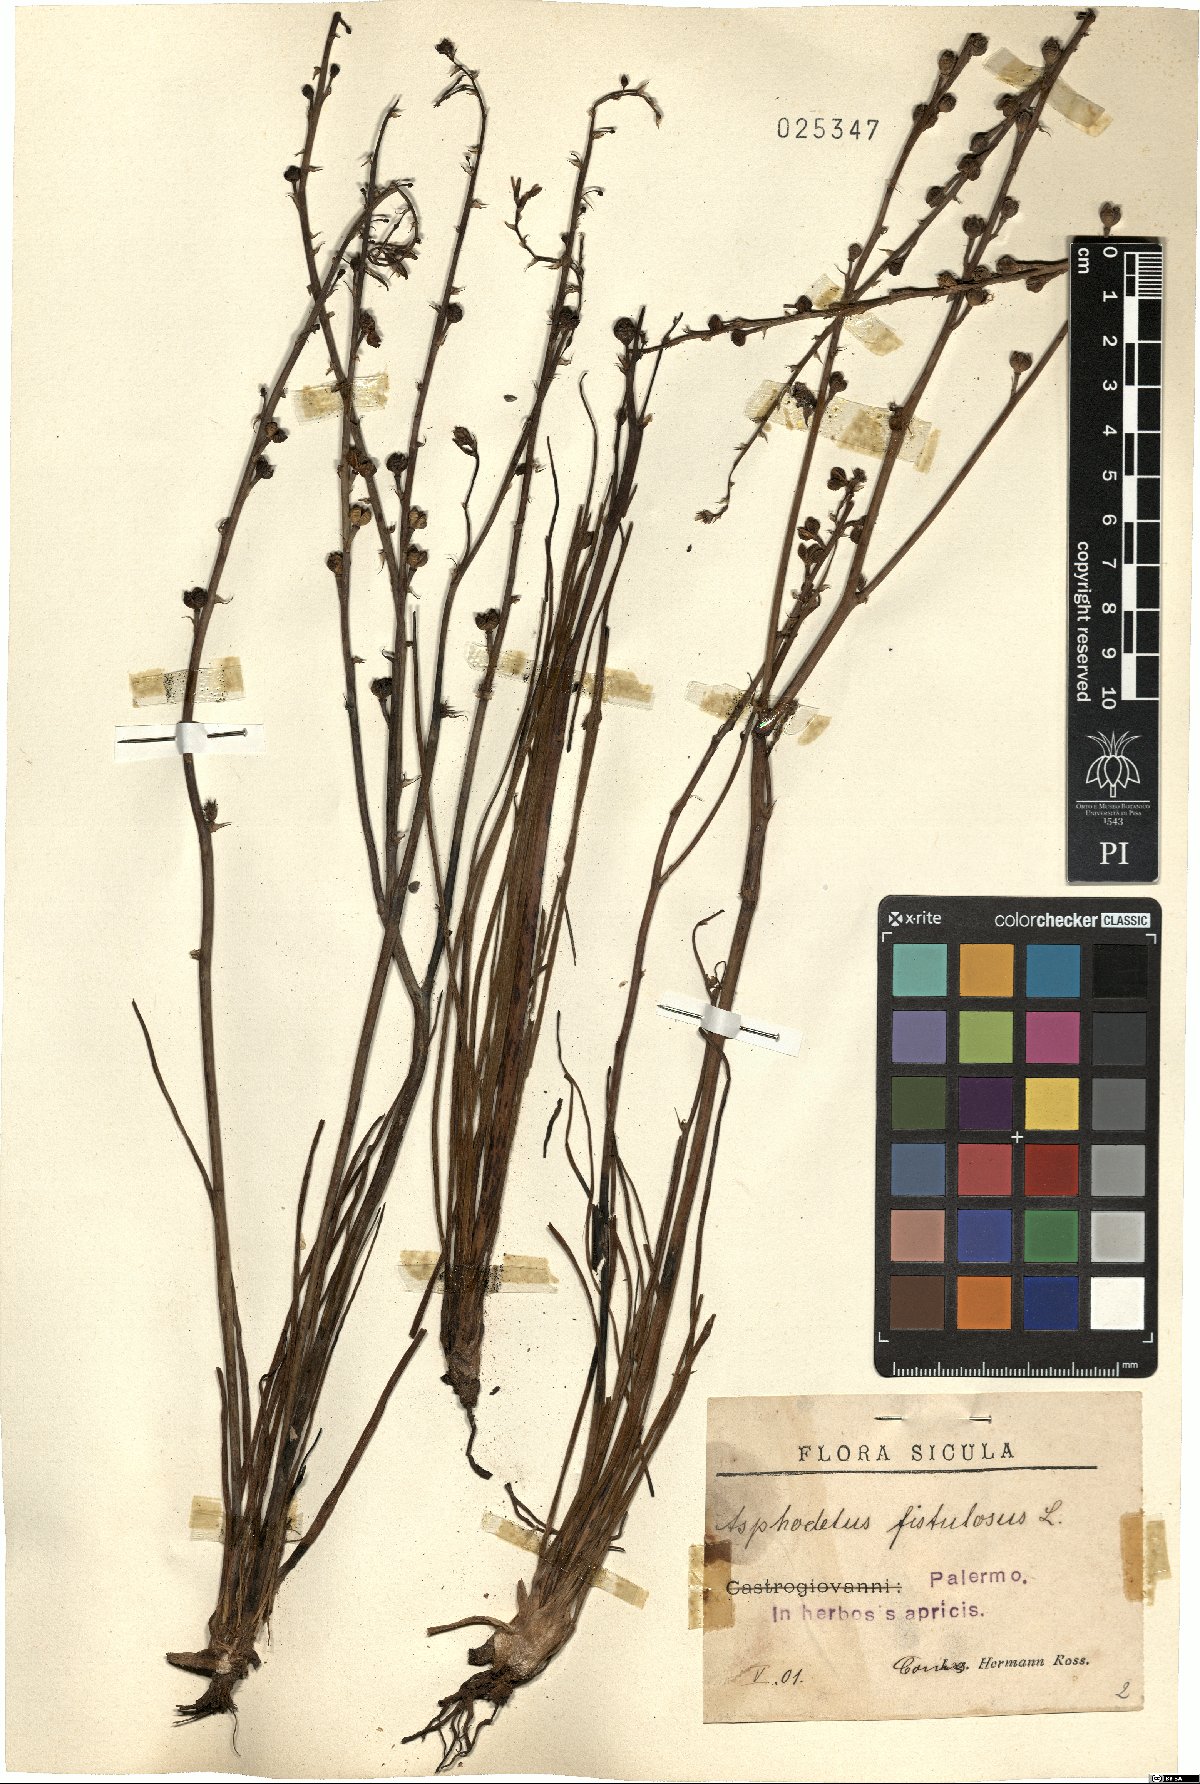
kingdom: Plantae
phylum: Tracheophyta
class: Liliopsida
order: Asparagales
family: Asphodelaceae
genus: Asphodelus
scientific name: Asphodelus fistulosus
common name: Onionweed
